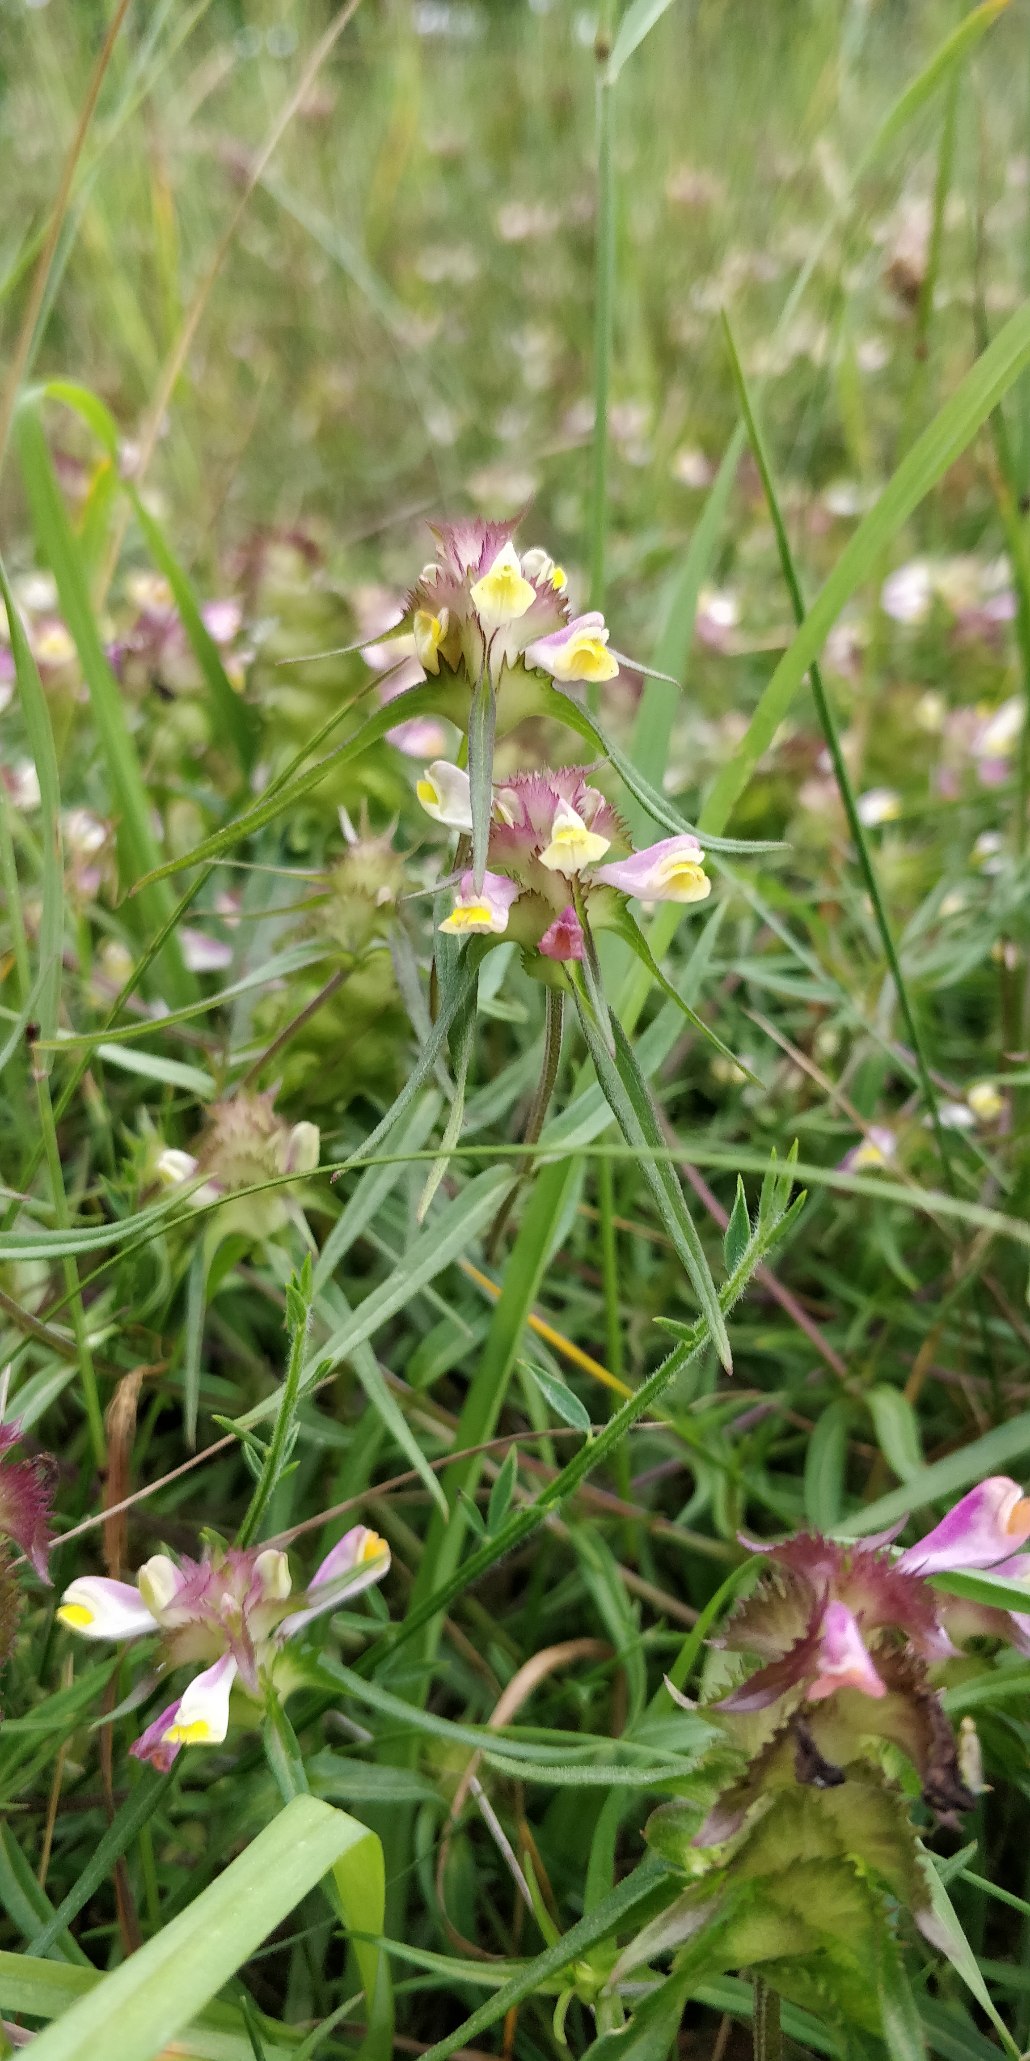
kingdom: Plantae
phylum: Tracheophyta
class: Magnoliopsida
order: Lamiales
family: Orobanchaceae
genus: Melampyrum
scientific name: Melampyrum cristatum
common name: Kantet kohvede
